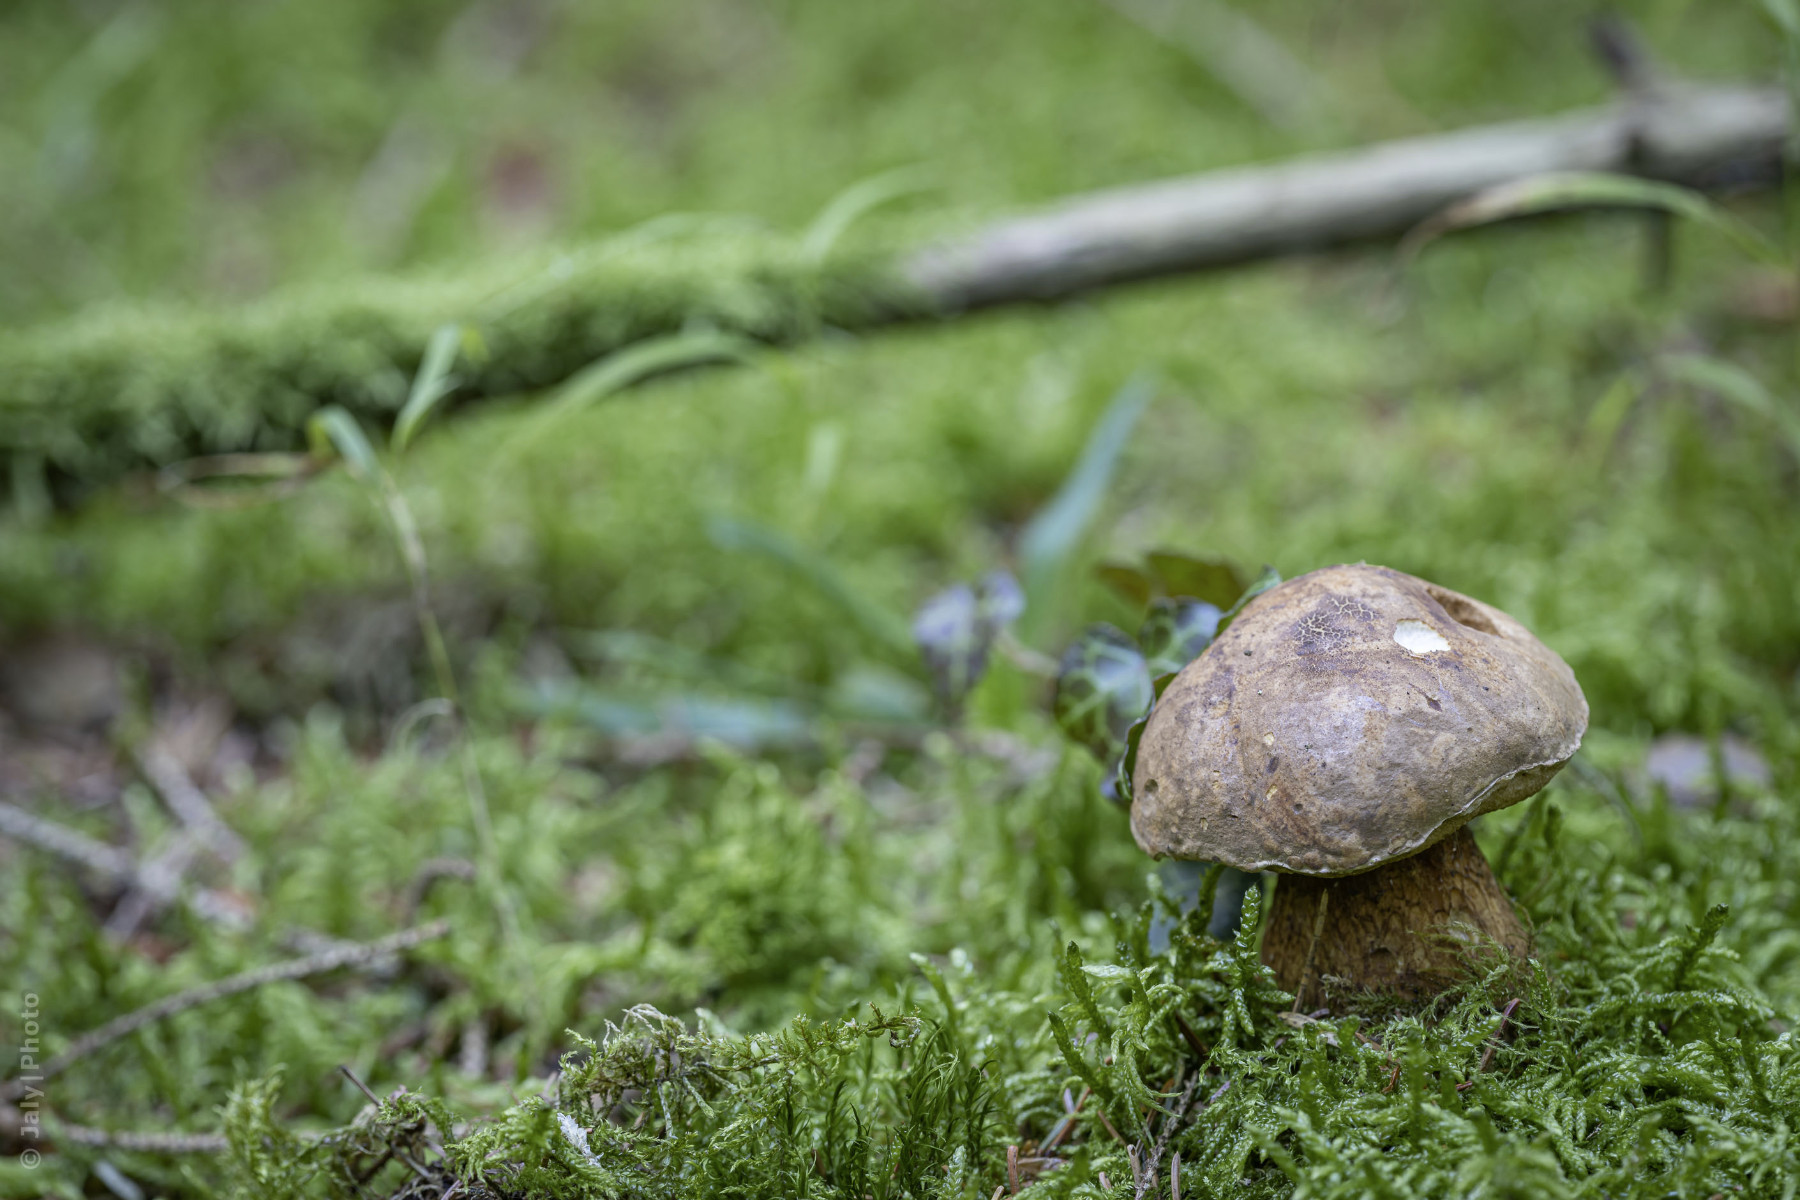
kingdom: Fungi
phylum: Basidiomycota
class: Agaricomycetes
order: Boletales
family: Boletaceae
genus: Tylopilus
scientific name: Tylopilus felleus
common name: galderørhat
